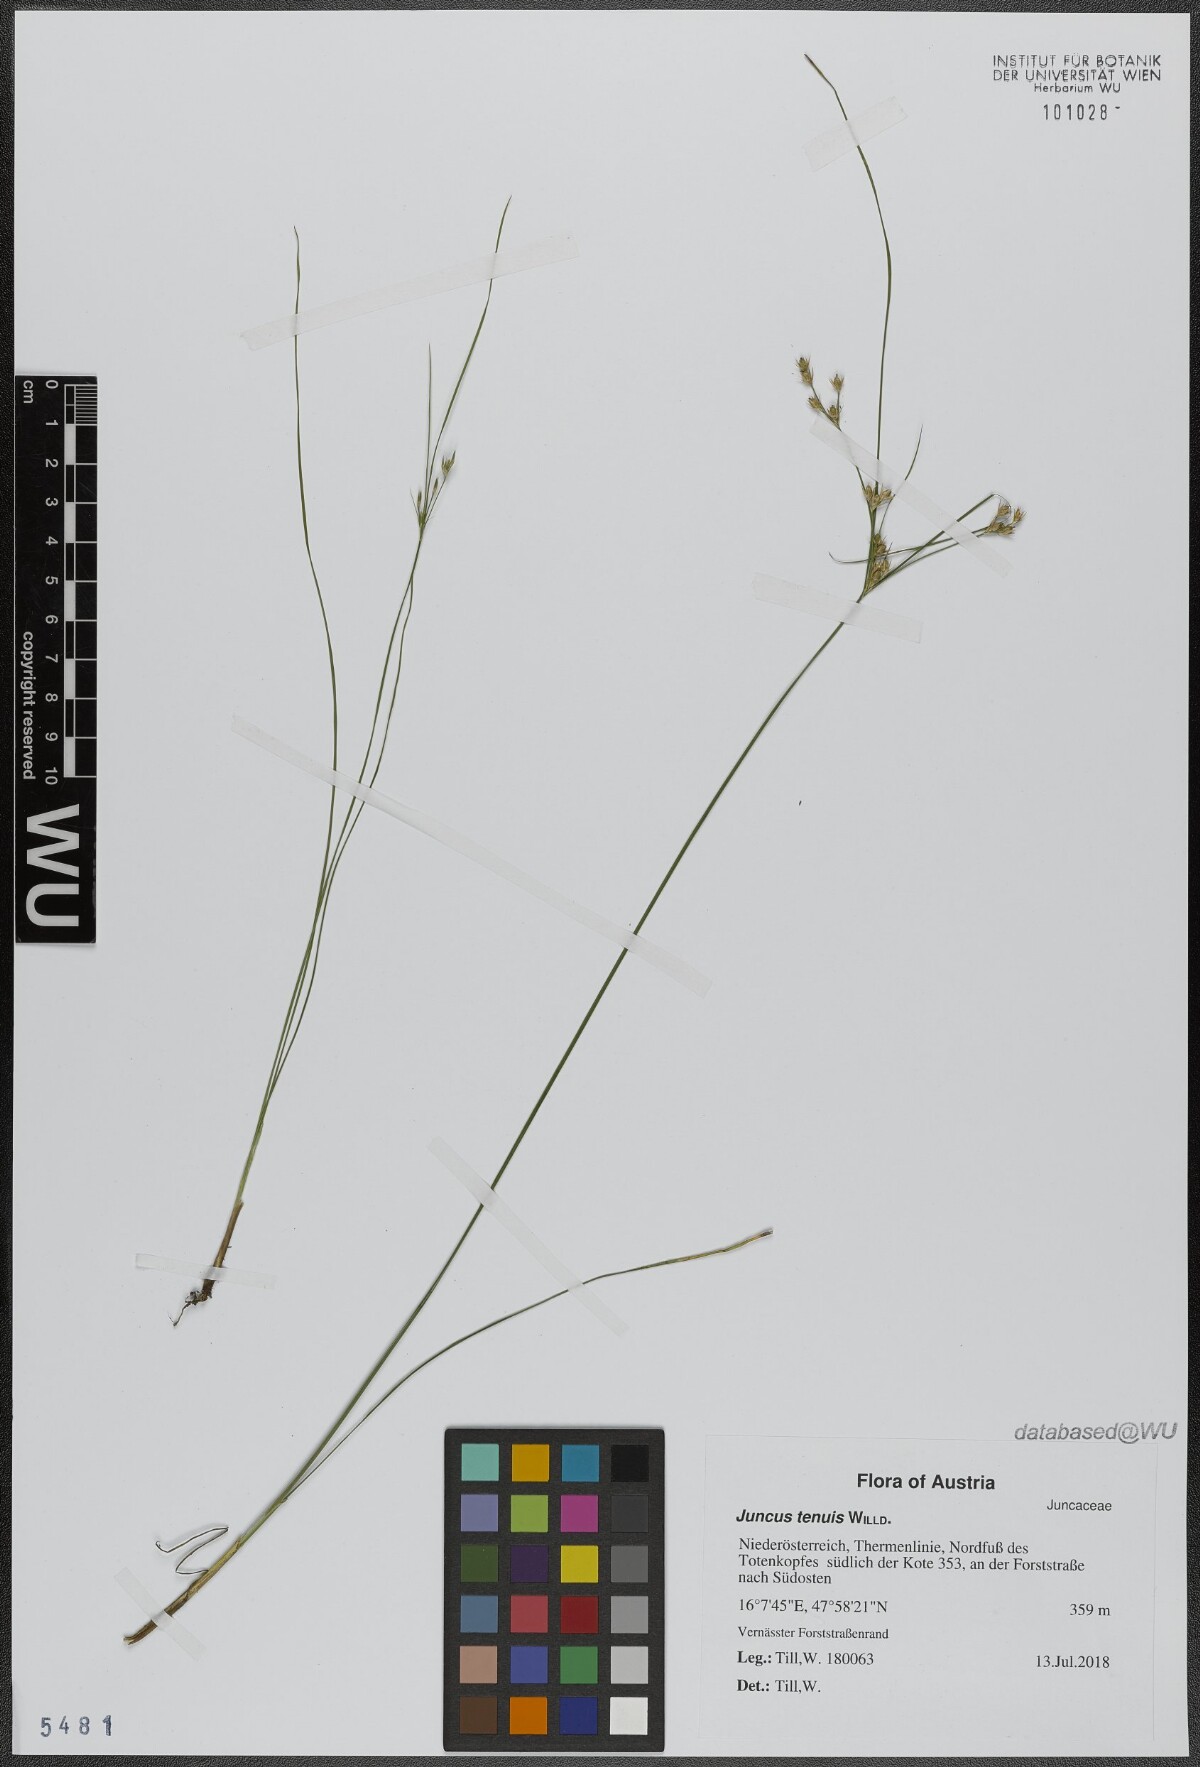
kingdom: Plantae
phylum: Tracheophyta
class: Liliopsida
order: Poales
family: Juncaceae
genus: Juncus
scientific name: Juncus tenuis
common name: Slender rush
